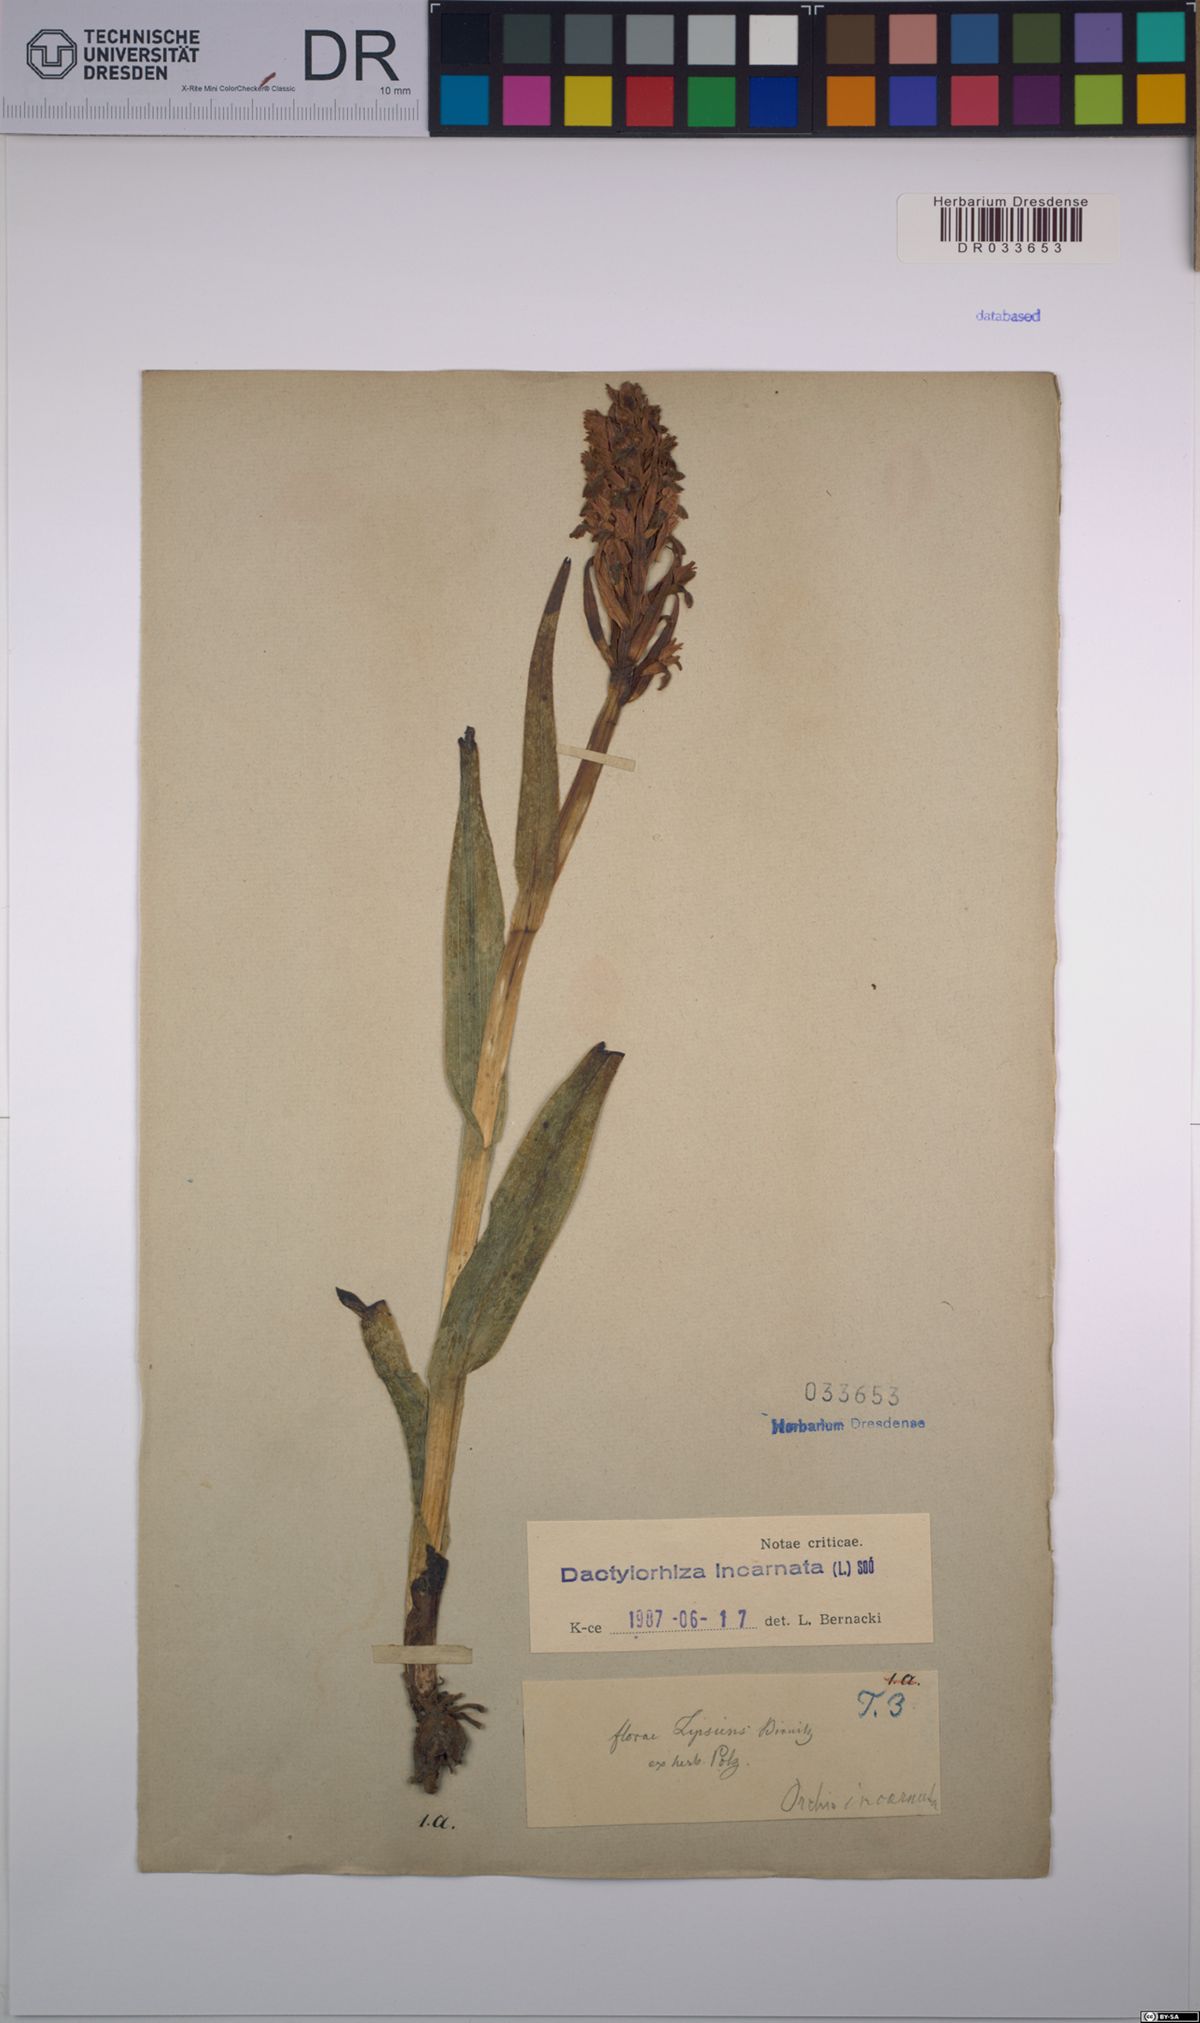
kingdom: Plantae
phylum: Tracheophyta
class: Liliopsida
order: Asparagales
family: Orchidaceae
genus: Dactylorhiza
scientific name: Dactylorhiza incarnata
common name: Early marsh-orchid
